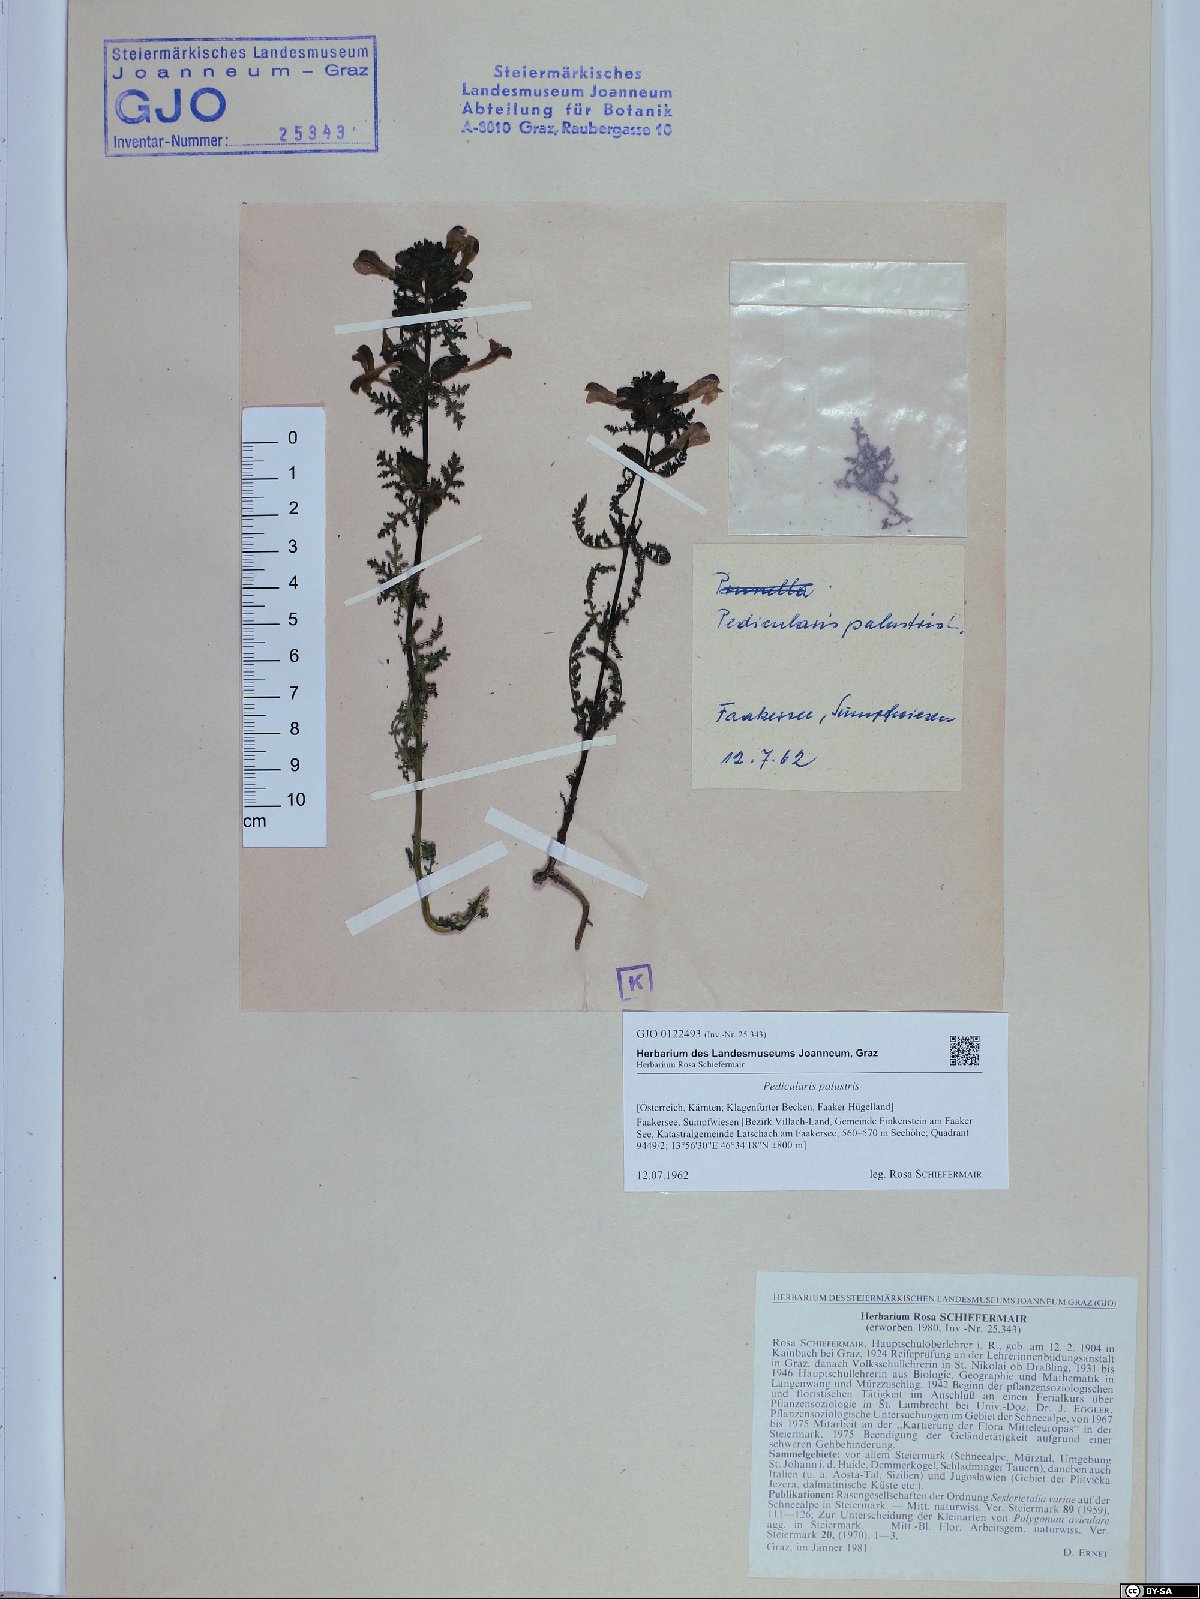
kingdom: Plantae
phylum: Tracheophyta
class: Magnoliopsida
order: Lamiales
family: Orobanchaceae
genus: Pedicularis
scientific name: Pedicularis palustris
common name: Marsh lousewort
